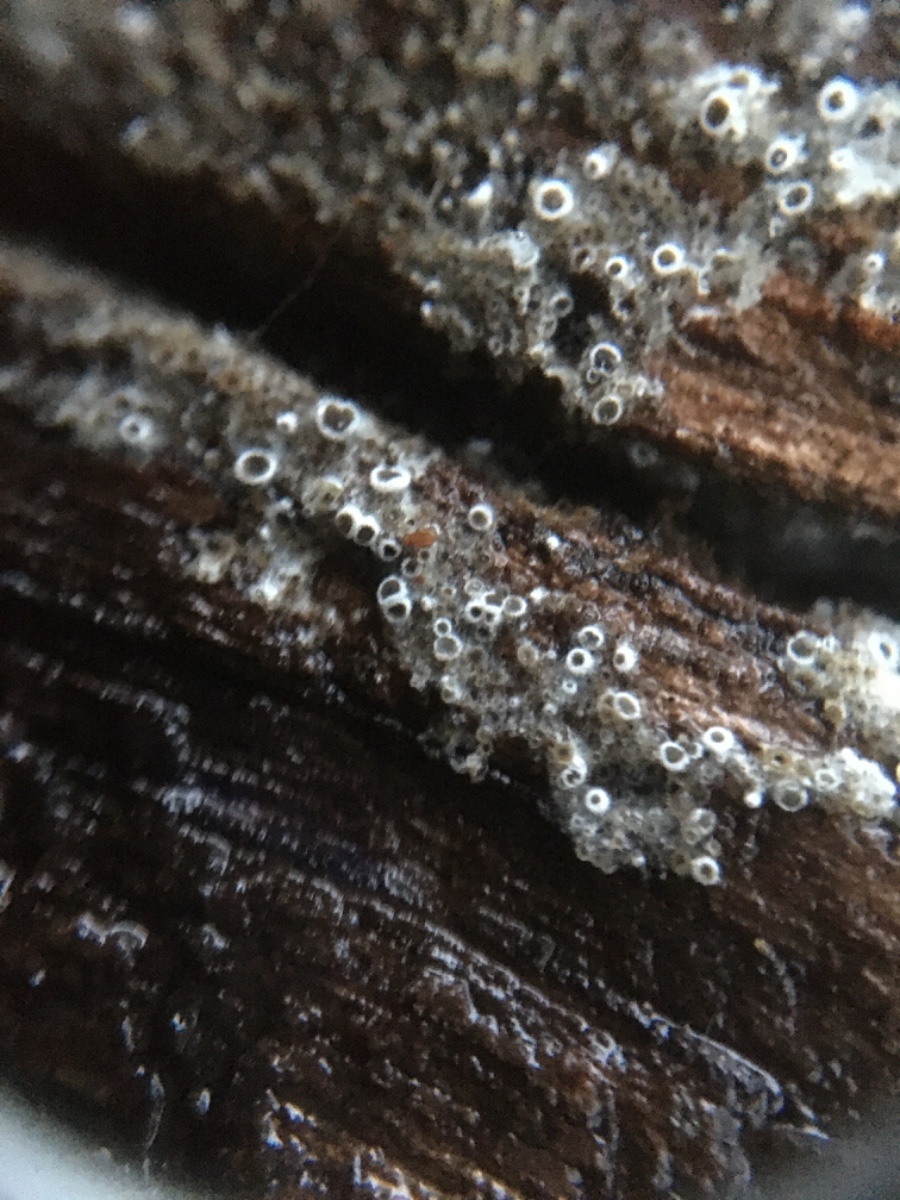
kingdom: Fungi
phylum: Ascomycota
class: Leotiomycetes
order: Helotiales
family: Arachnopezizaceae
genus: Eriopezia
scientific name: Eriopezia caesia
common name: ege-spindskive
